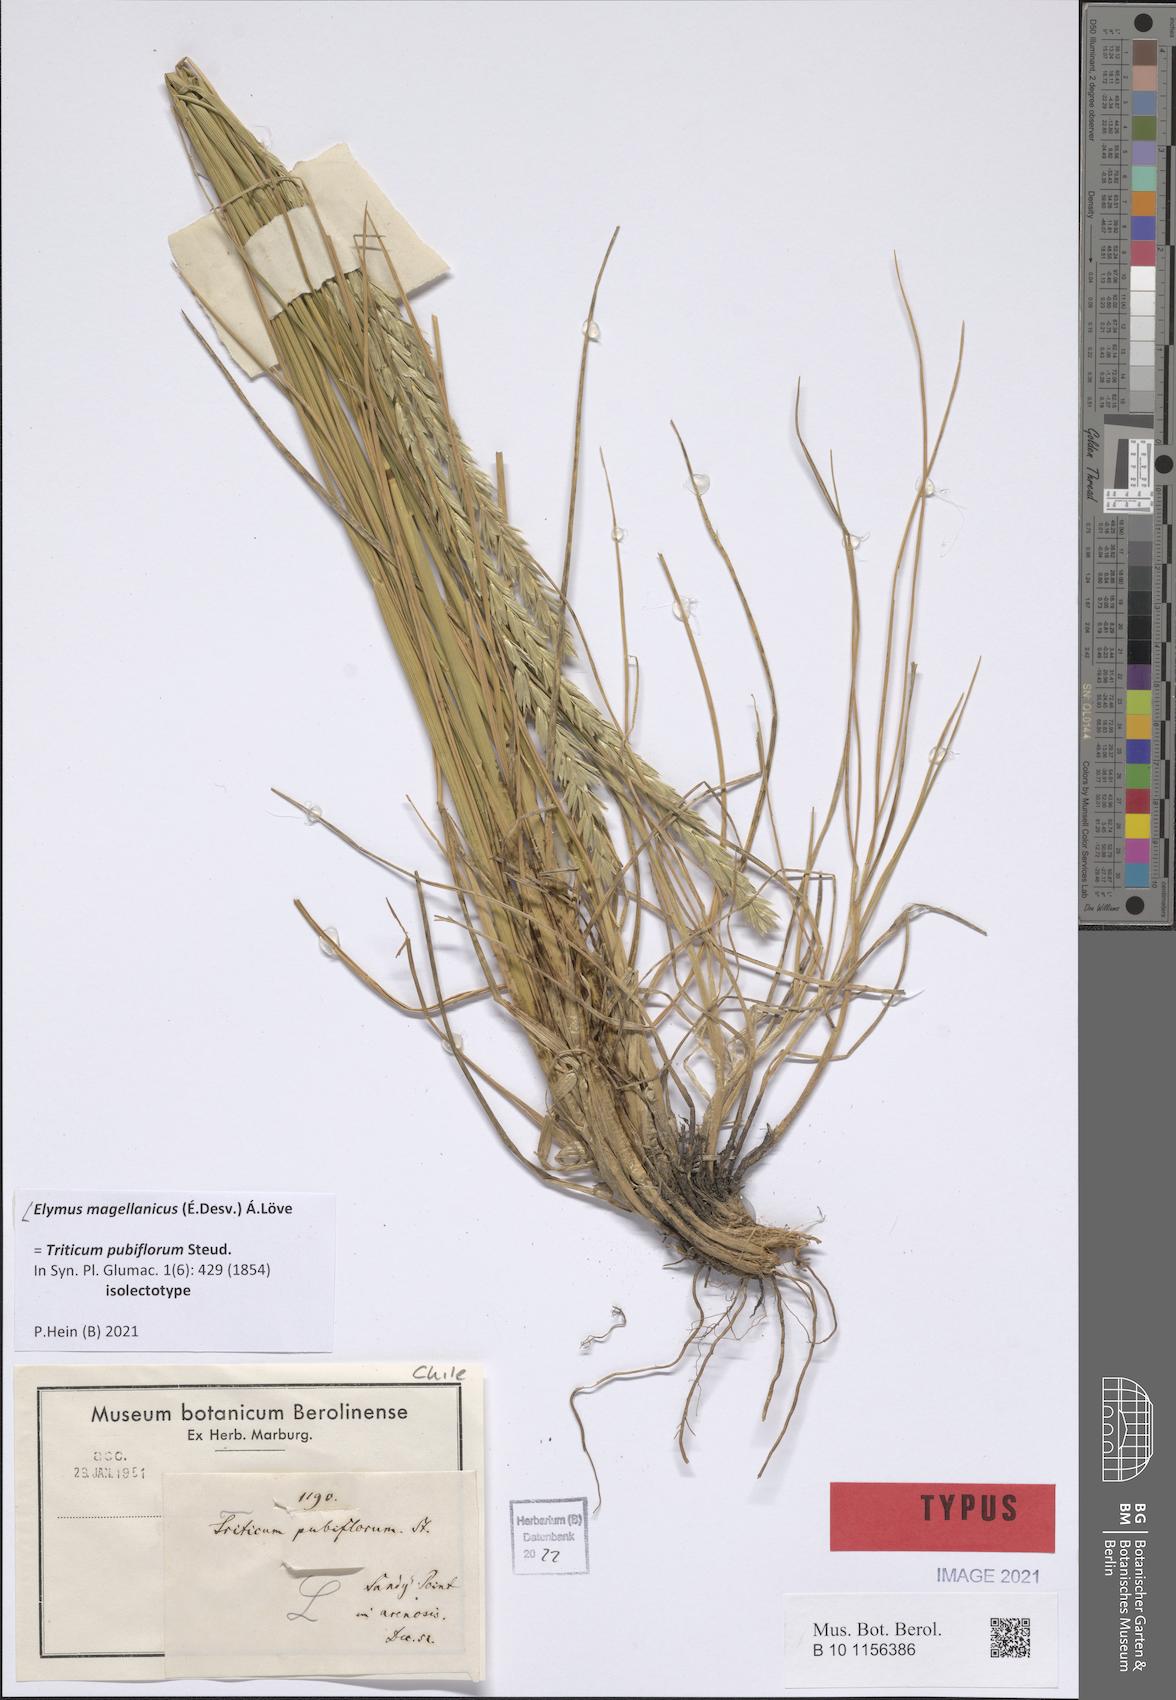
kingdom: Plantae
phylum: Tracheophyta
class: Liliopsida
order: Poales
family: Poaceae
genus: Elymus
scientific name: Elymus magellanicus
